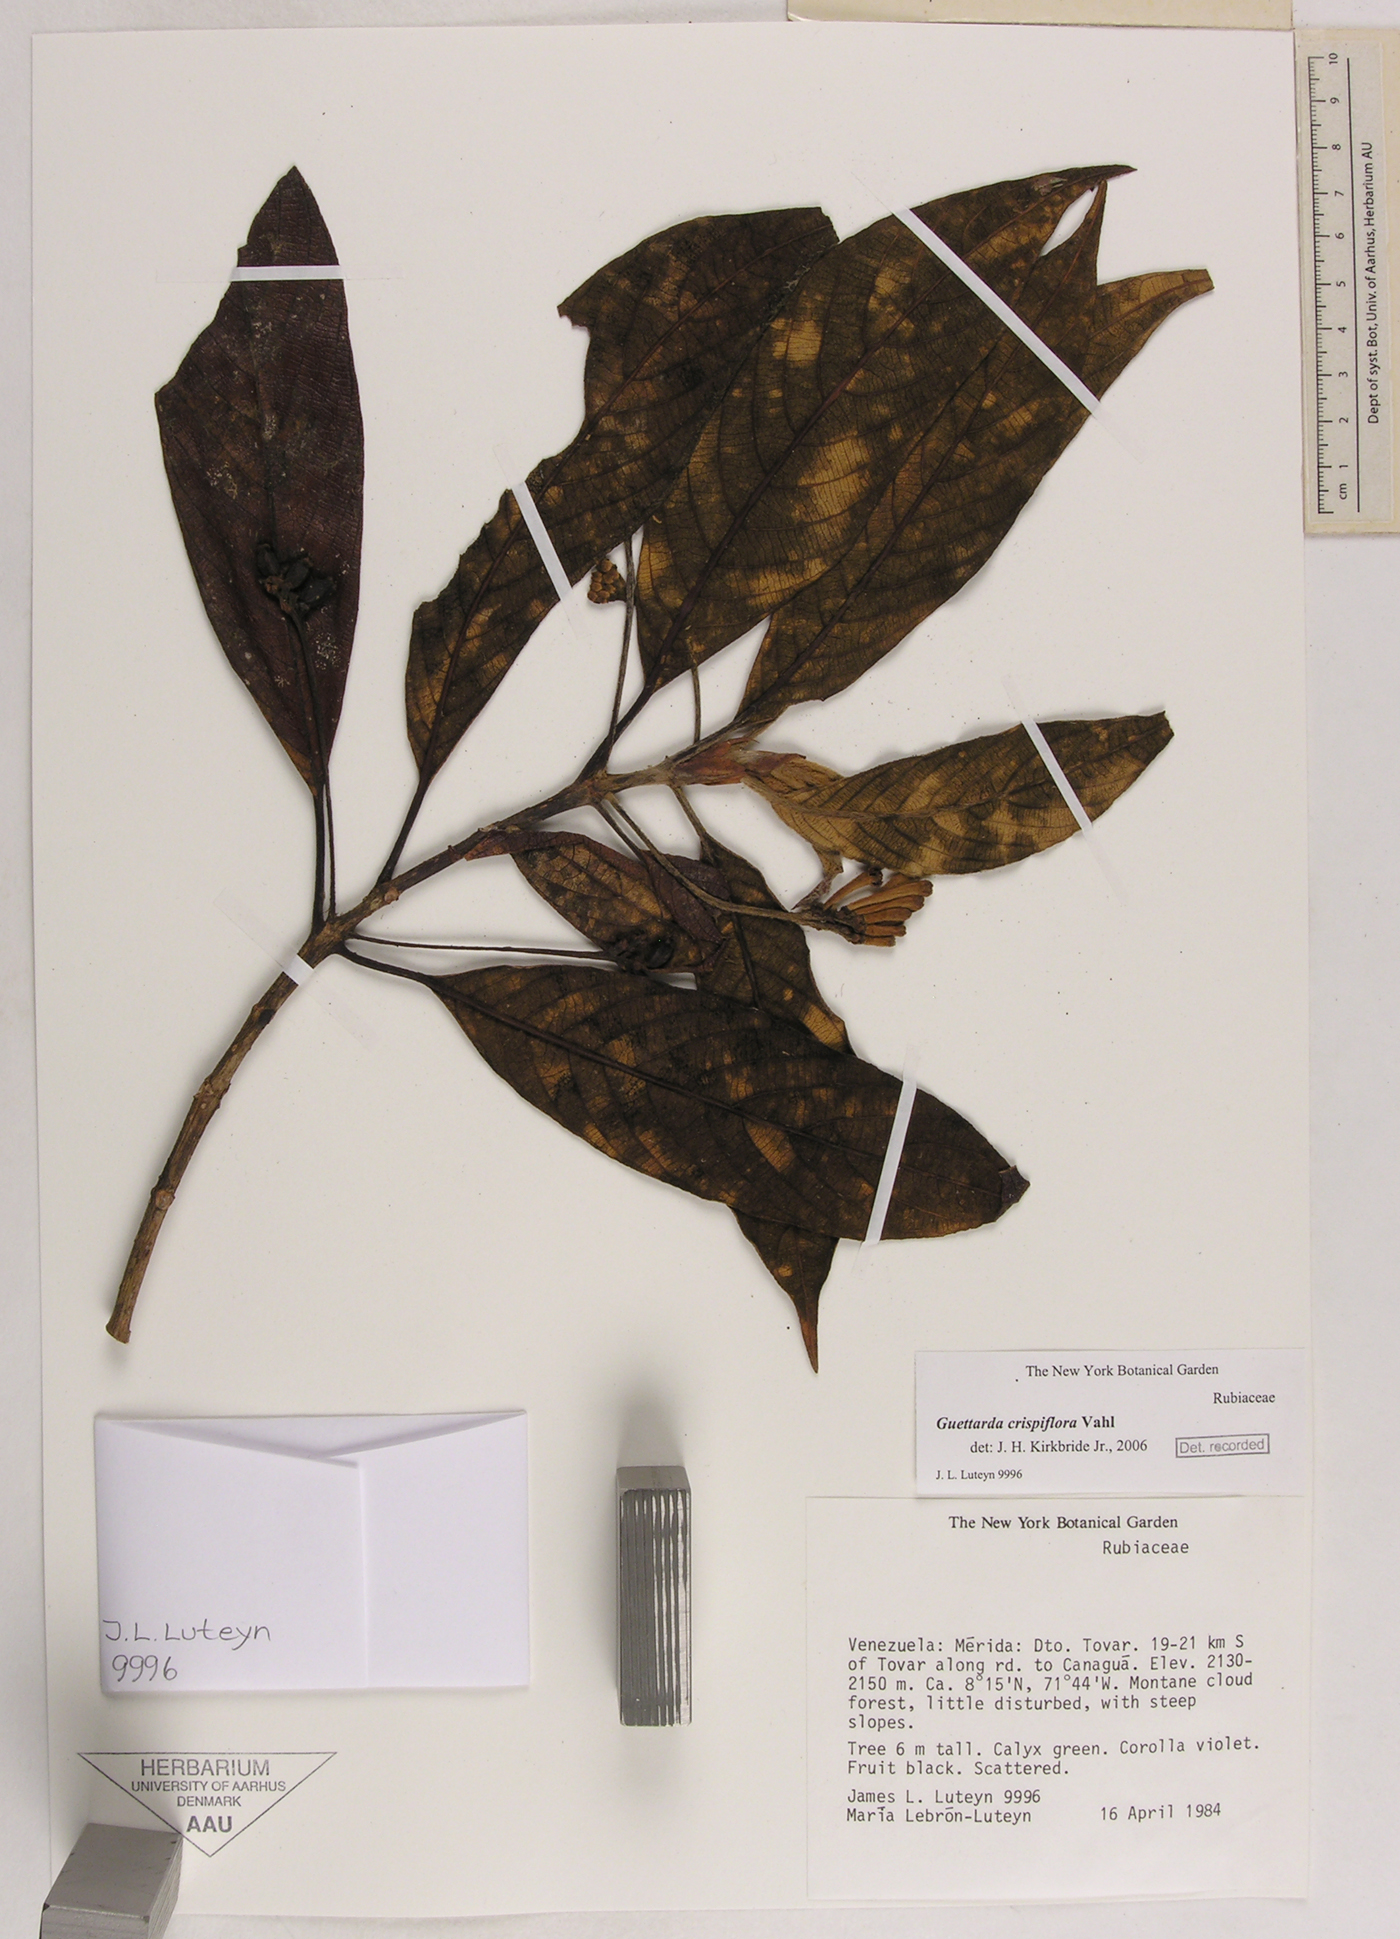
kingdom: Plantae
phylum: Tracheophyta
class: Magnoliopsida
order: Gentianales
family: Rubiaceae
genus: Tournefortiopsis
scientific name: Tournefortiopsis crispiflora
